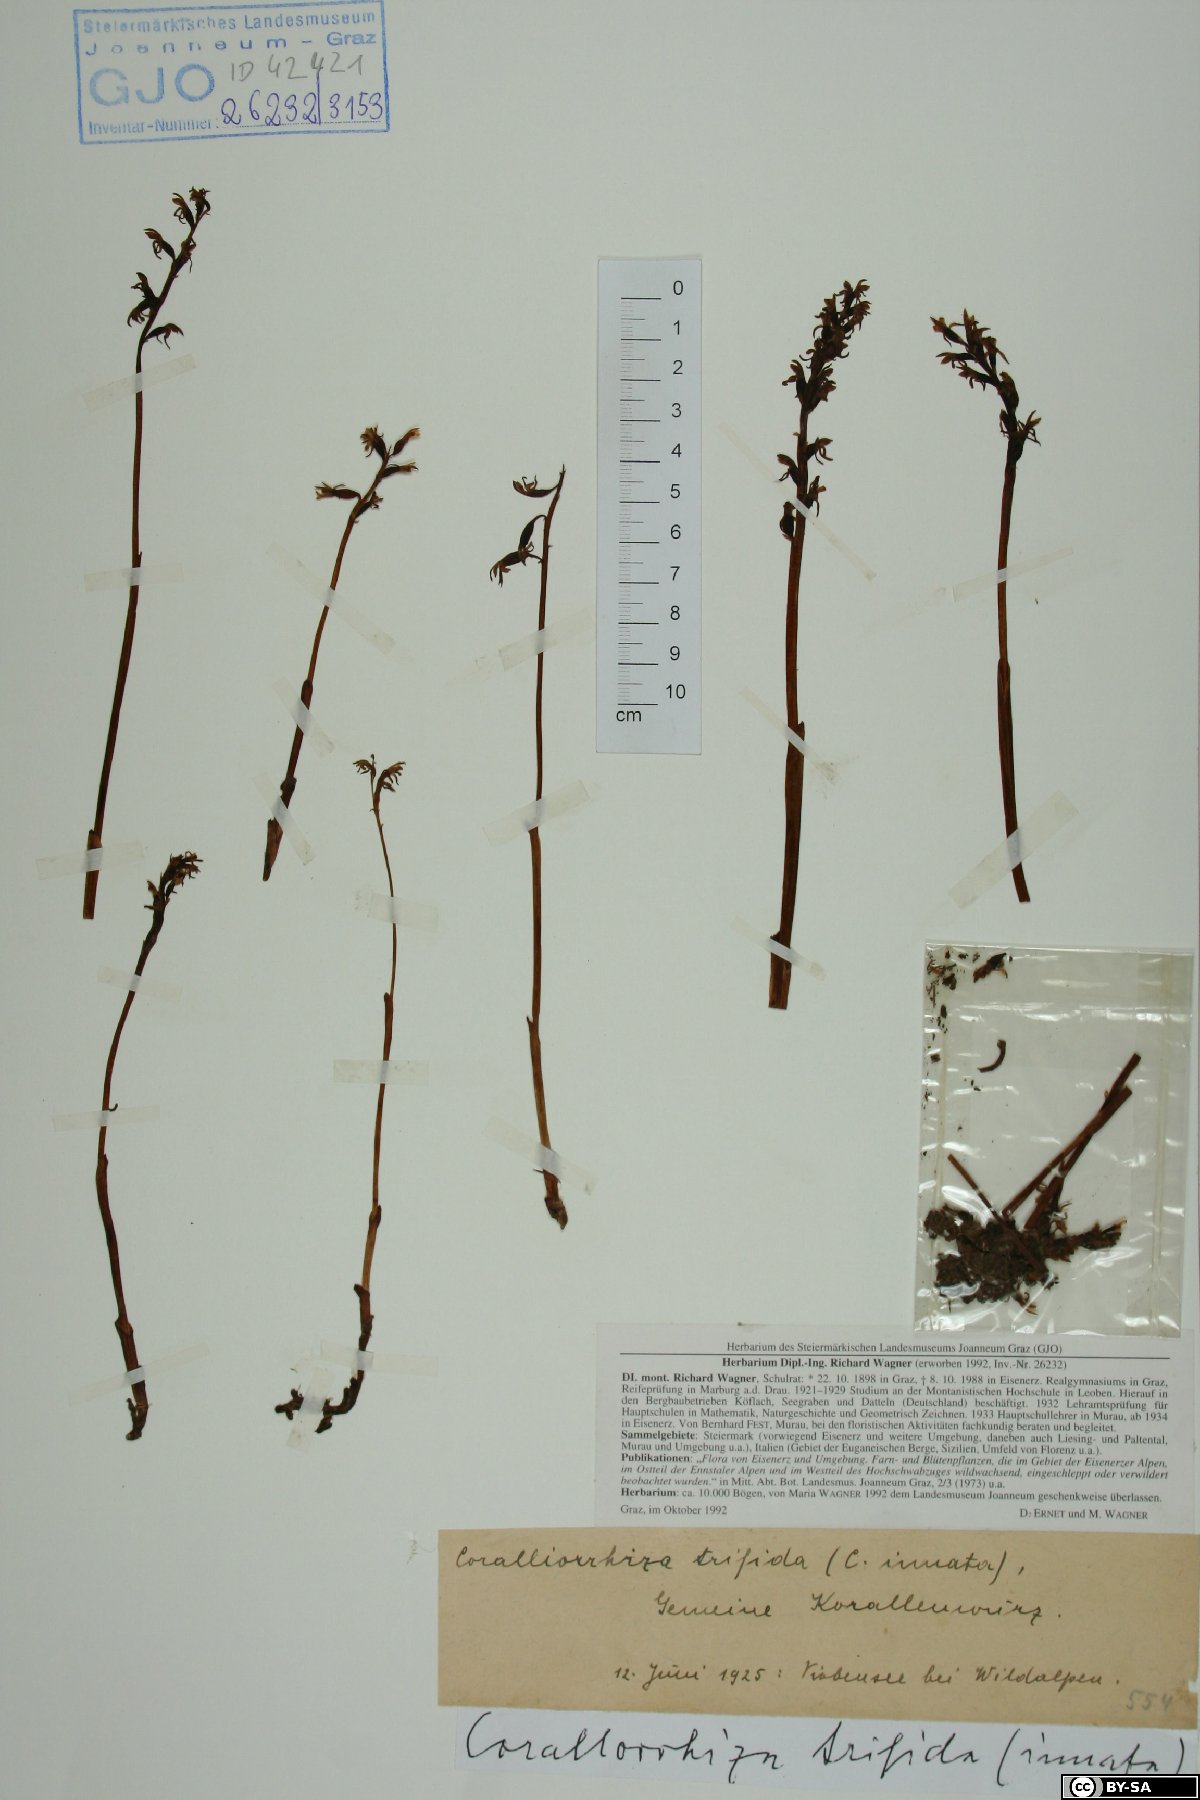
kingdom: Plantae
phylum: Tracheophyta
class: Liliopsida
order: Asparagales
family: Orchidaceae
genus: Corallorhiza
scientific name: Corallorhiza trifida
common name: Yellow coralroot
